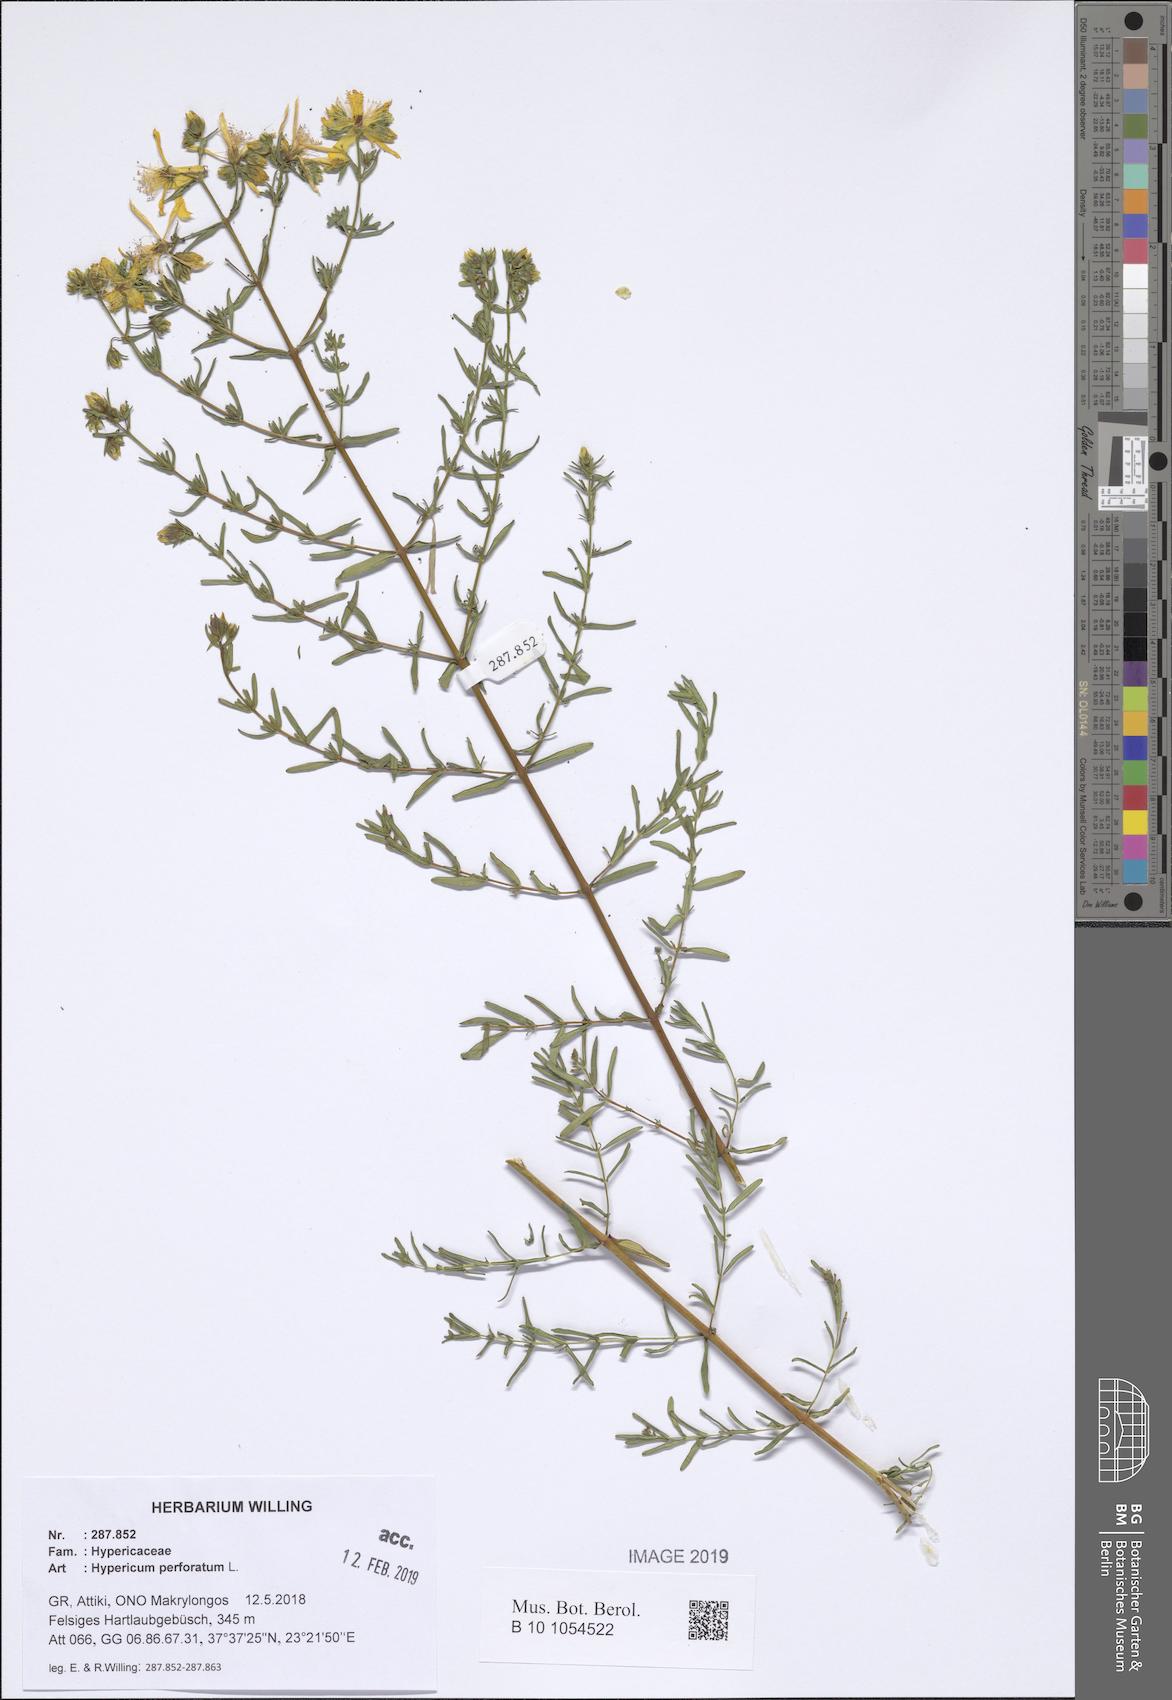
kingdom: Plantae
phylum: Tracheophyta
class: Magnoliopsida
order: Malpighiales
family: Hypericaceae
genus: Hypericum
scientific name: Hypericum perforatum
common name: Common st. johnswort
